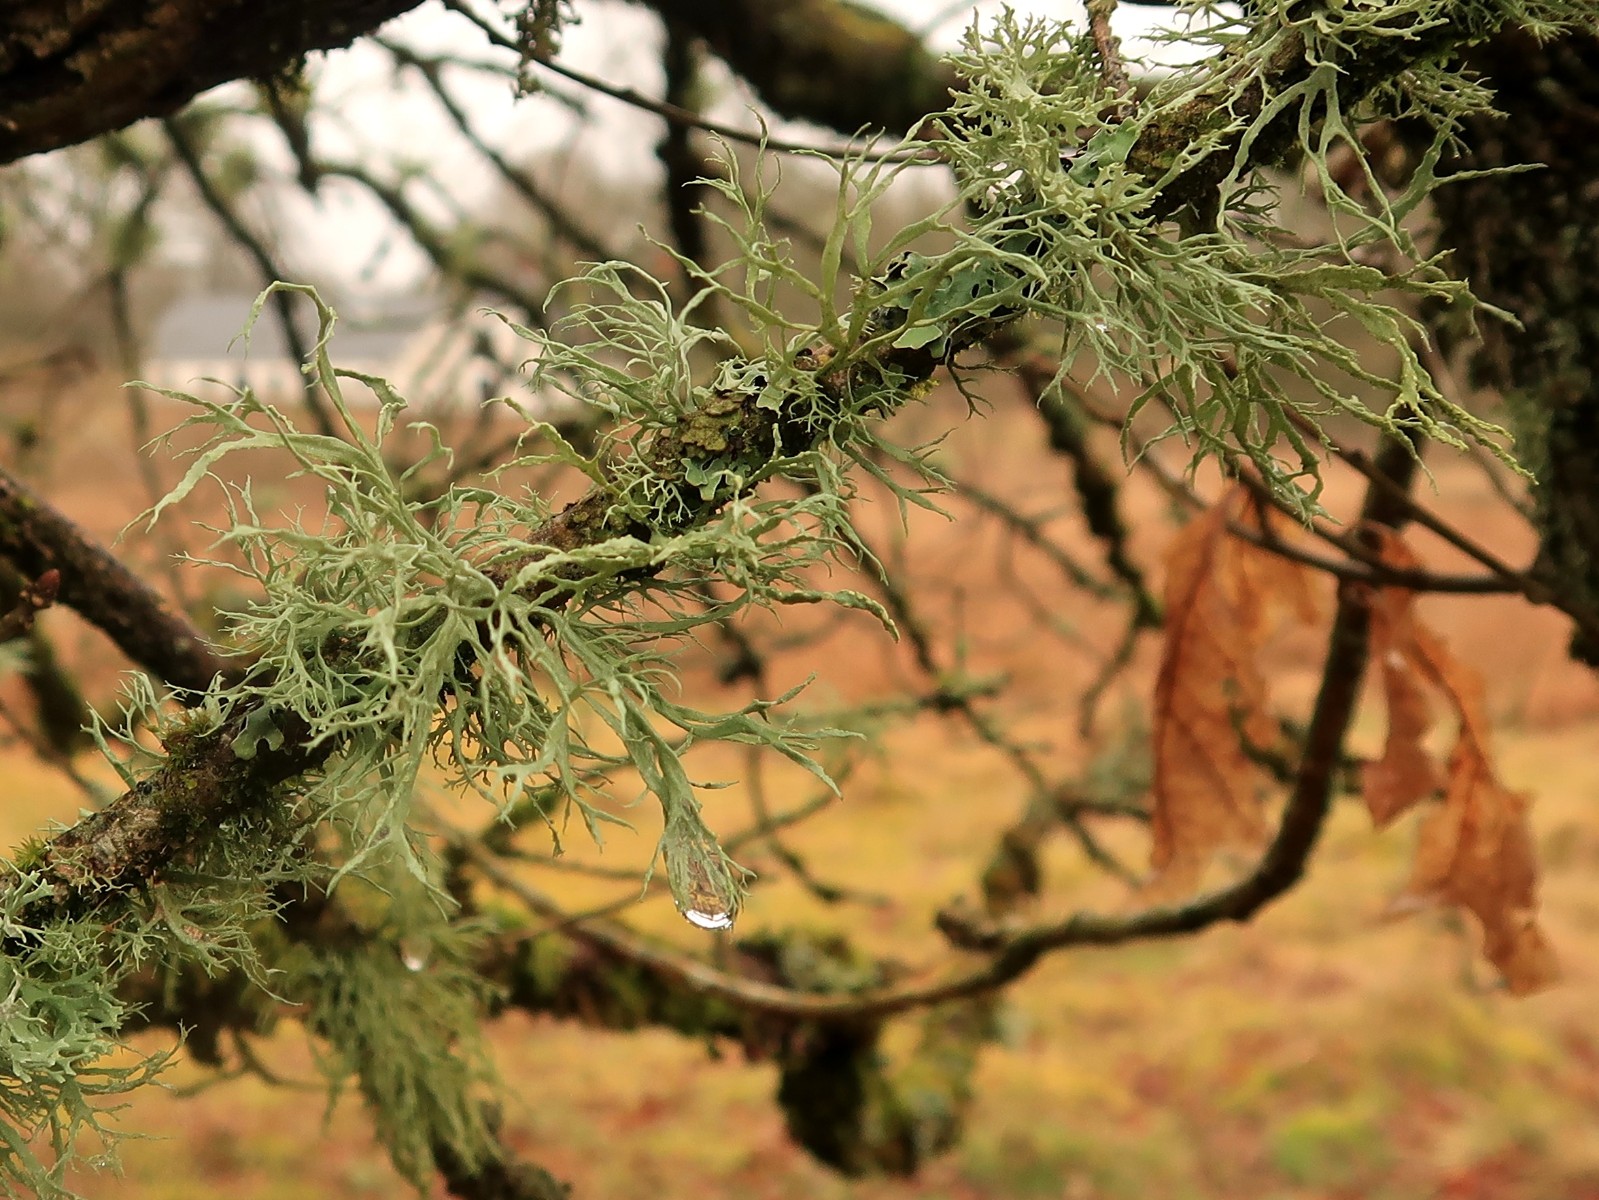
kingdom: Fungi
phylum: Ascomycota
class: Lecanoromycetes
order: Lecanorales
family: Ramalinaceae
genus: Ramalina
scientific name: Ramalina farinacea
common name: melet grenlav
